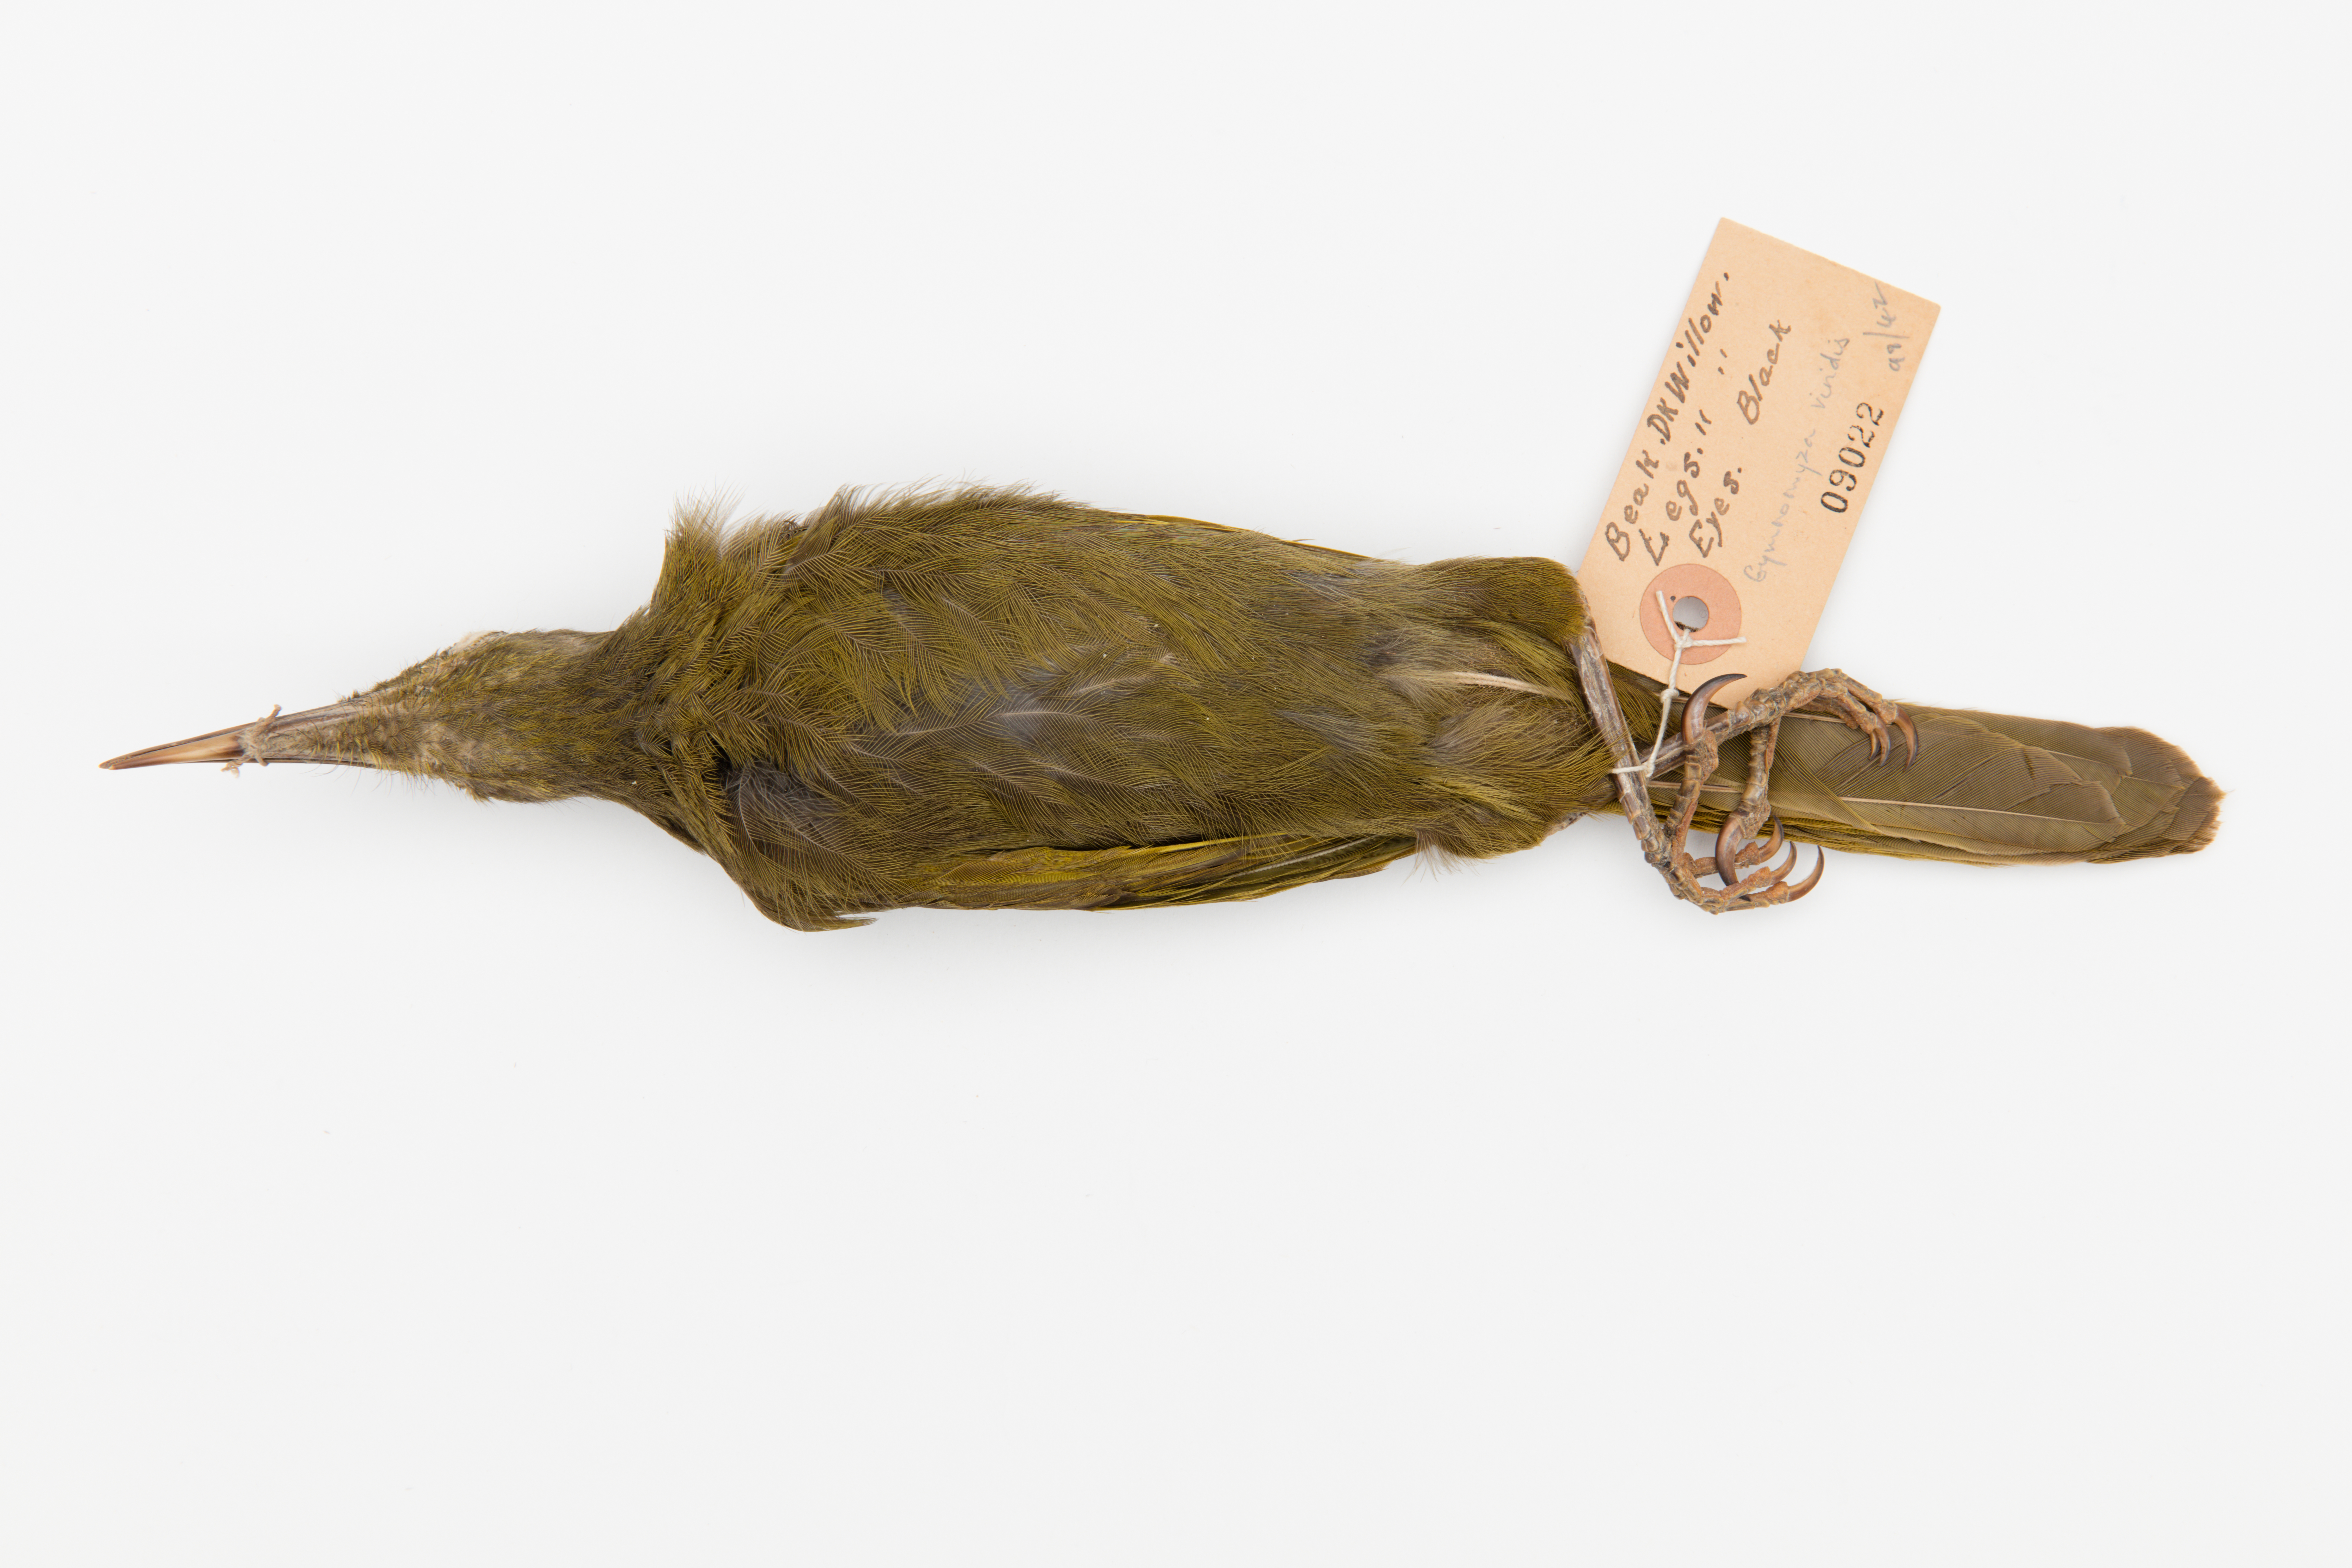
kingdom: Animalia
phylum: Chordata
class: Aves
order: Passeriformes
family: Meliphagidae
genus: Gymnomyza
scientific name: Gymnomyza viridis
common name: Yellow-billed honeyeater
